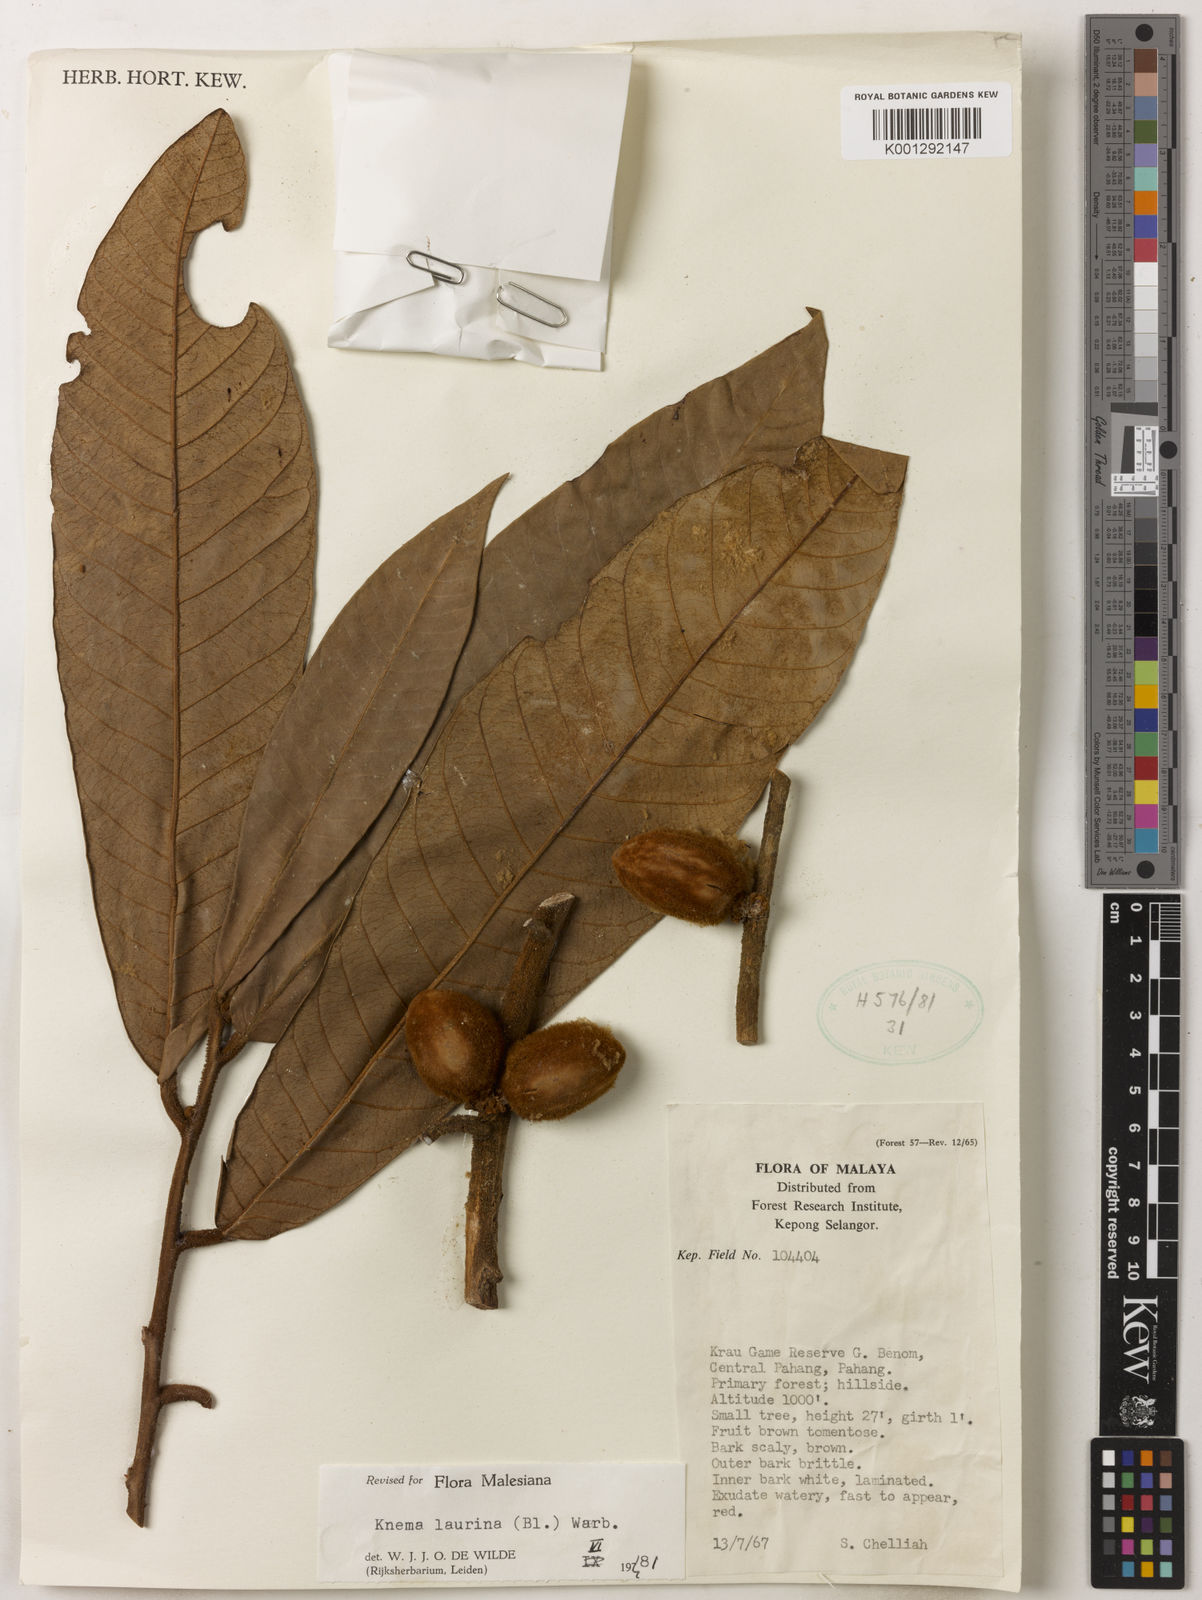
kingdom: Plantae
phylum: Tracheophyta
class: Magnoliopsida
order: Magnoliales
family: Myristicaceae
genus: Knema
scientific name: Knema laurina
